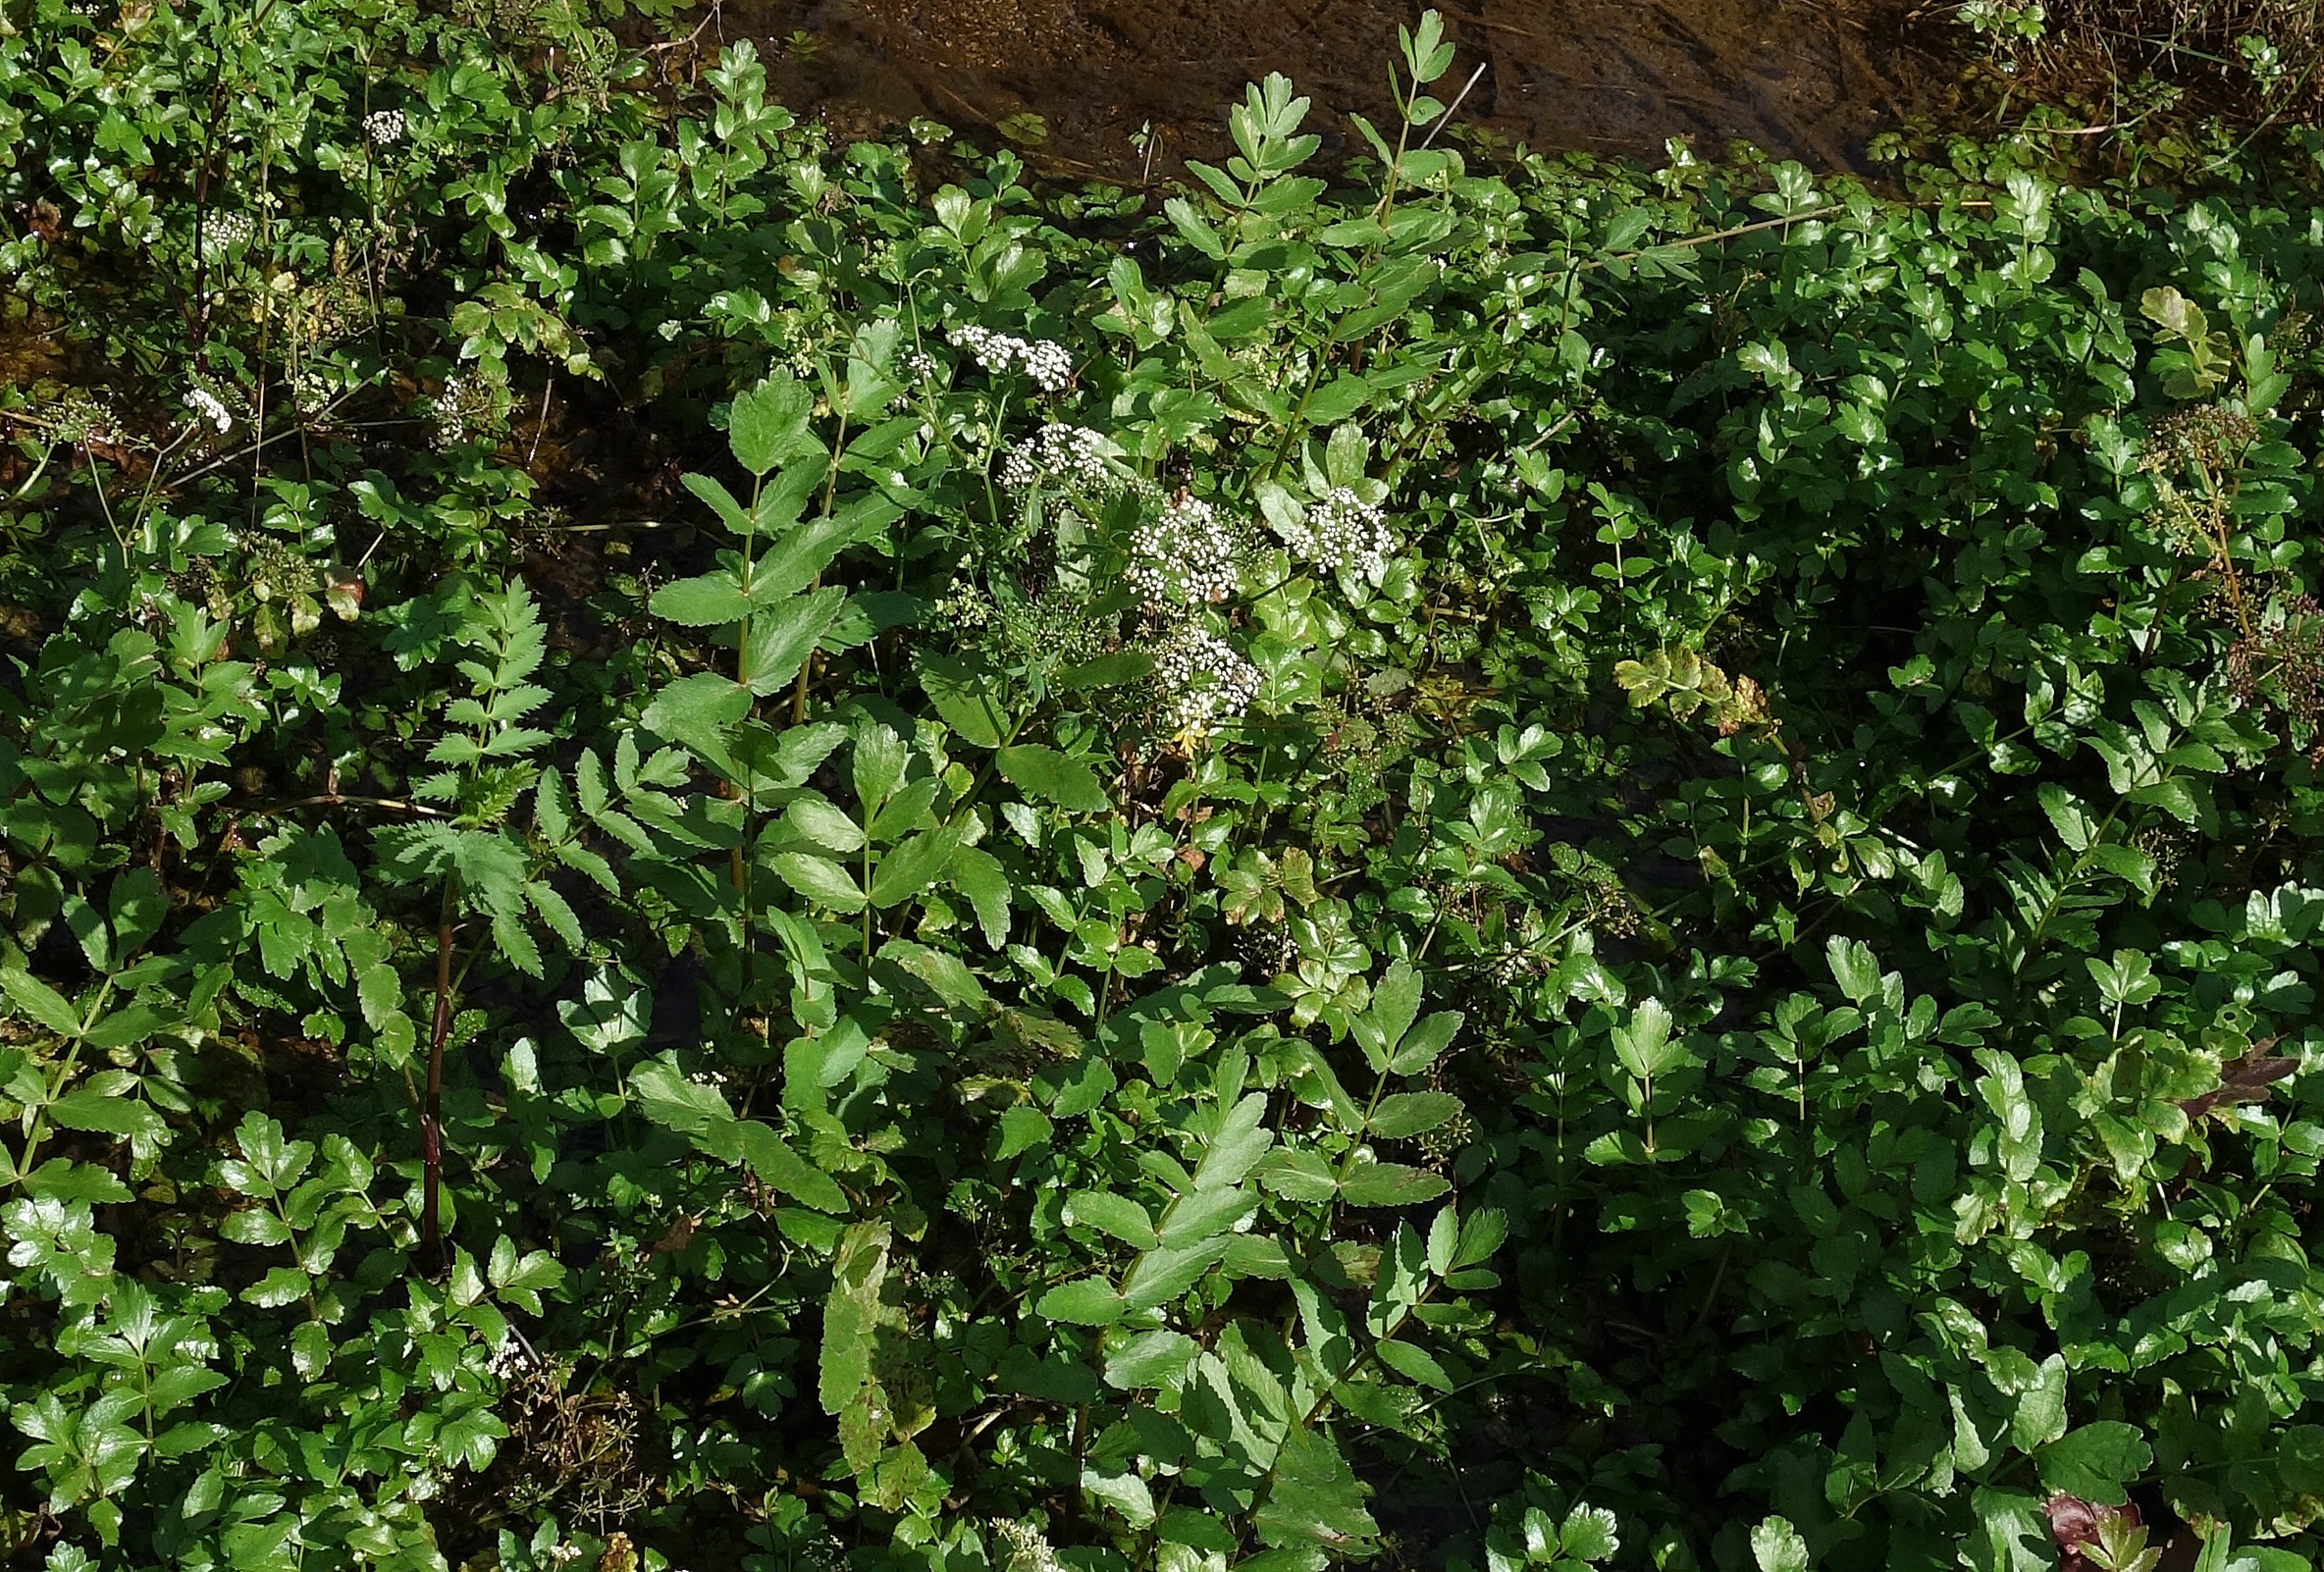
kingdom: Plantae
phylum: Tracheophyta
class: Magnoliopsida
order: Apiales
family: Apiaceae
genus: Berula
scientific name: Berula erecta
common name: Sideskærm
